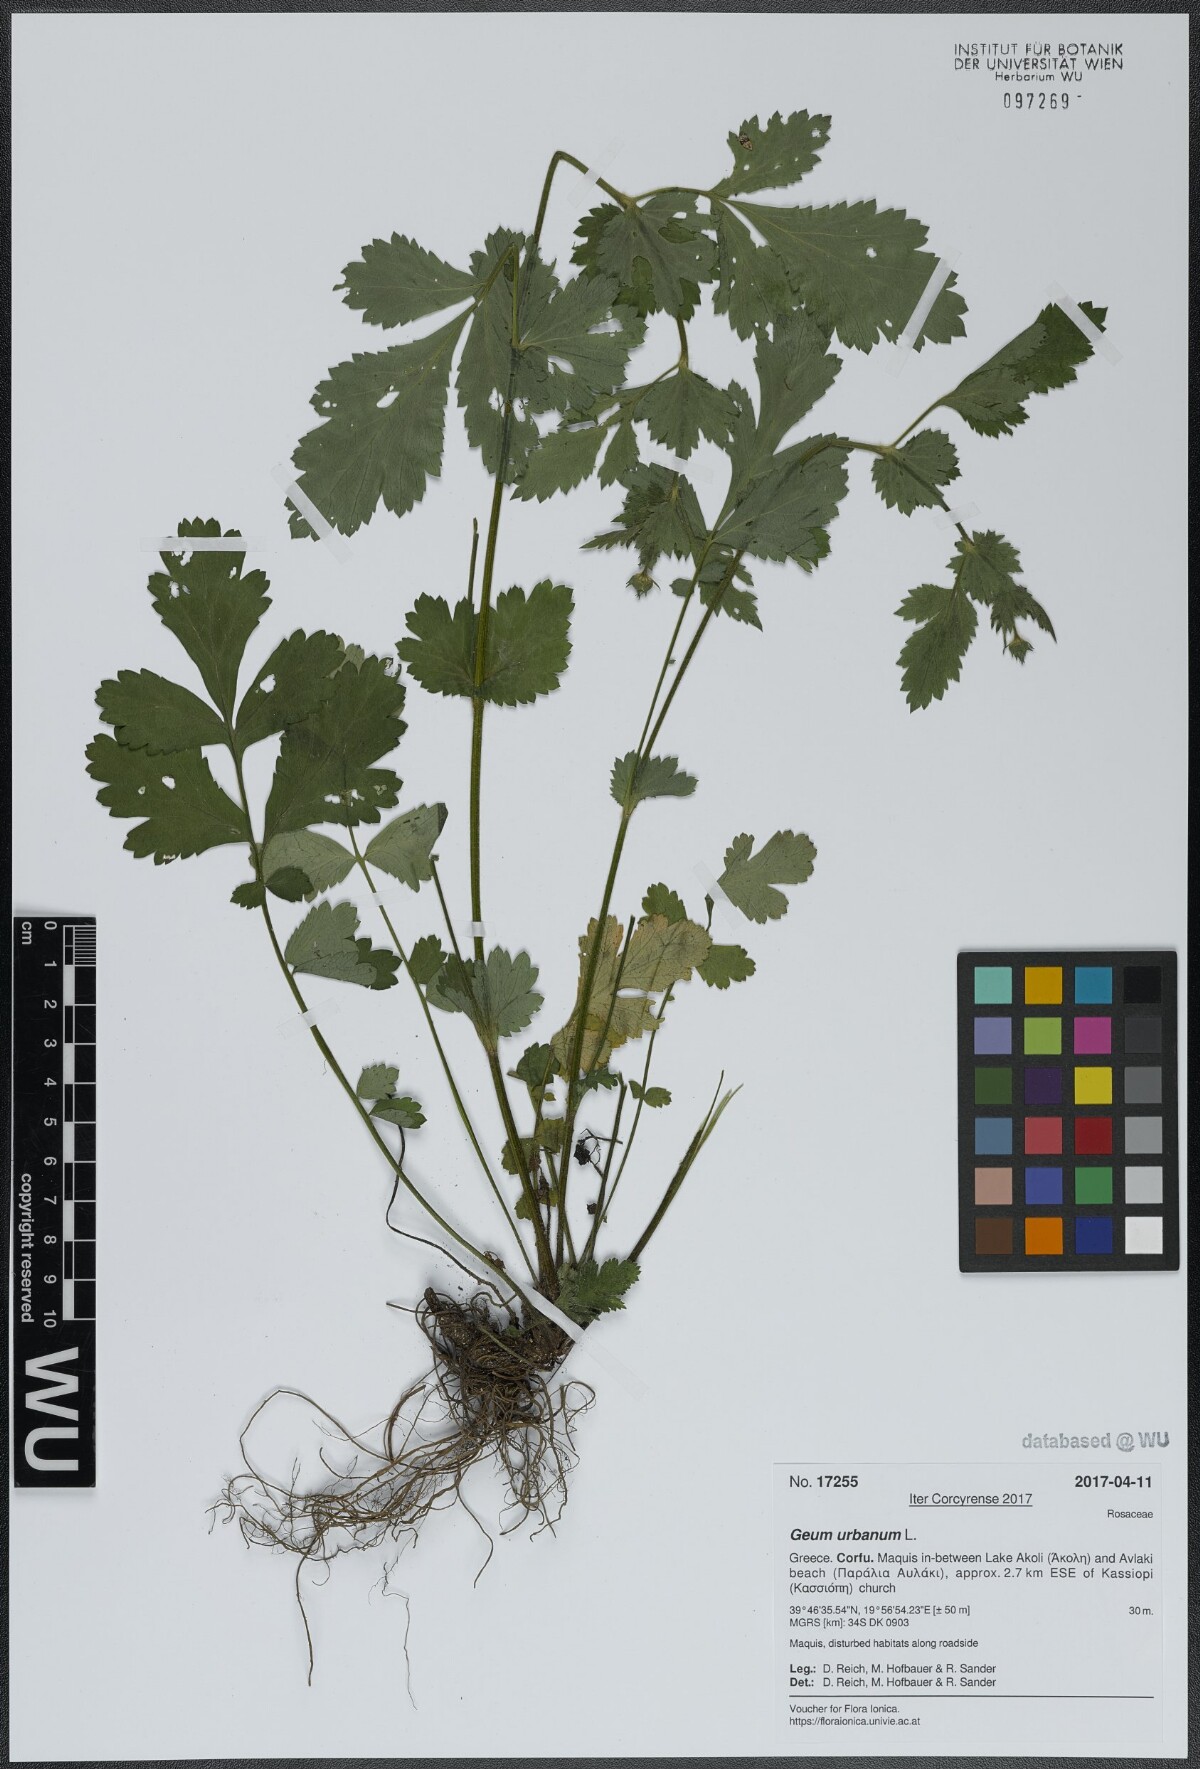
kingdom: Plantae
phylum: Tracheophyta
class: Magnoliopsida
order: Rosales
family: Rosaceae
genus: Geum
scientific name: Geum urbanum
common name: Wood avens
